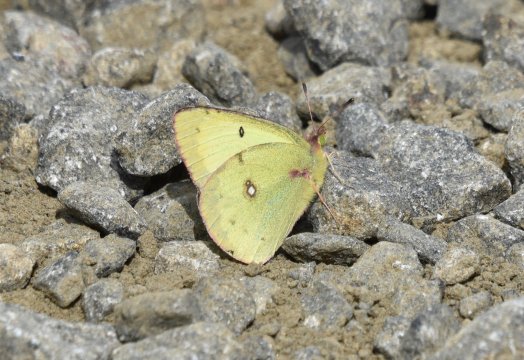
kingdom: Animalia
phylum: Arthropoda
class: Insecta
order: Lepidoptera
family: Pieridae
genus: Colias
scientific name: Colias philodice
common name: Clouded Sulphur
